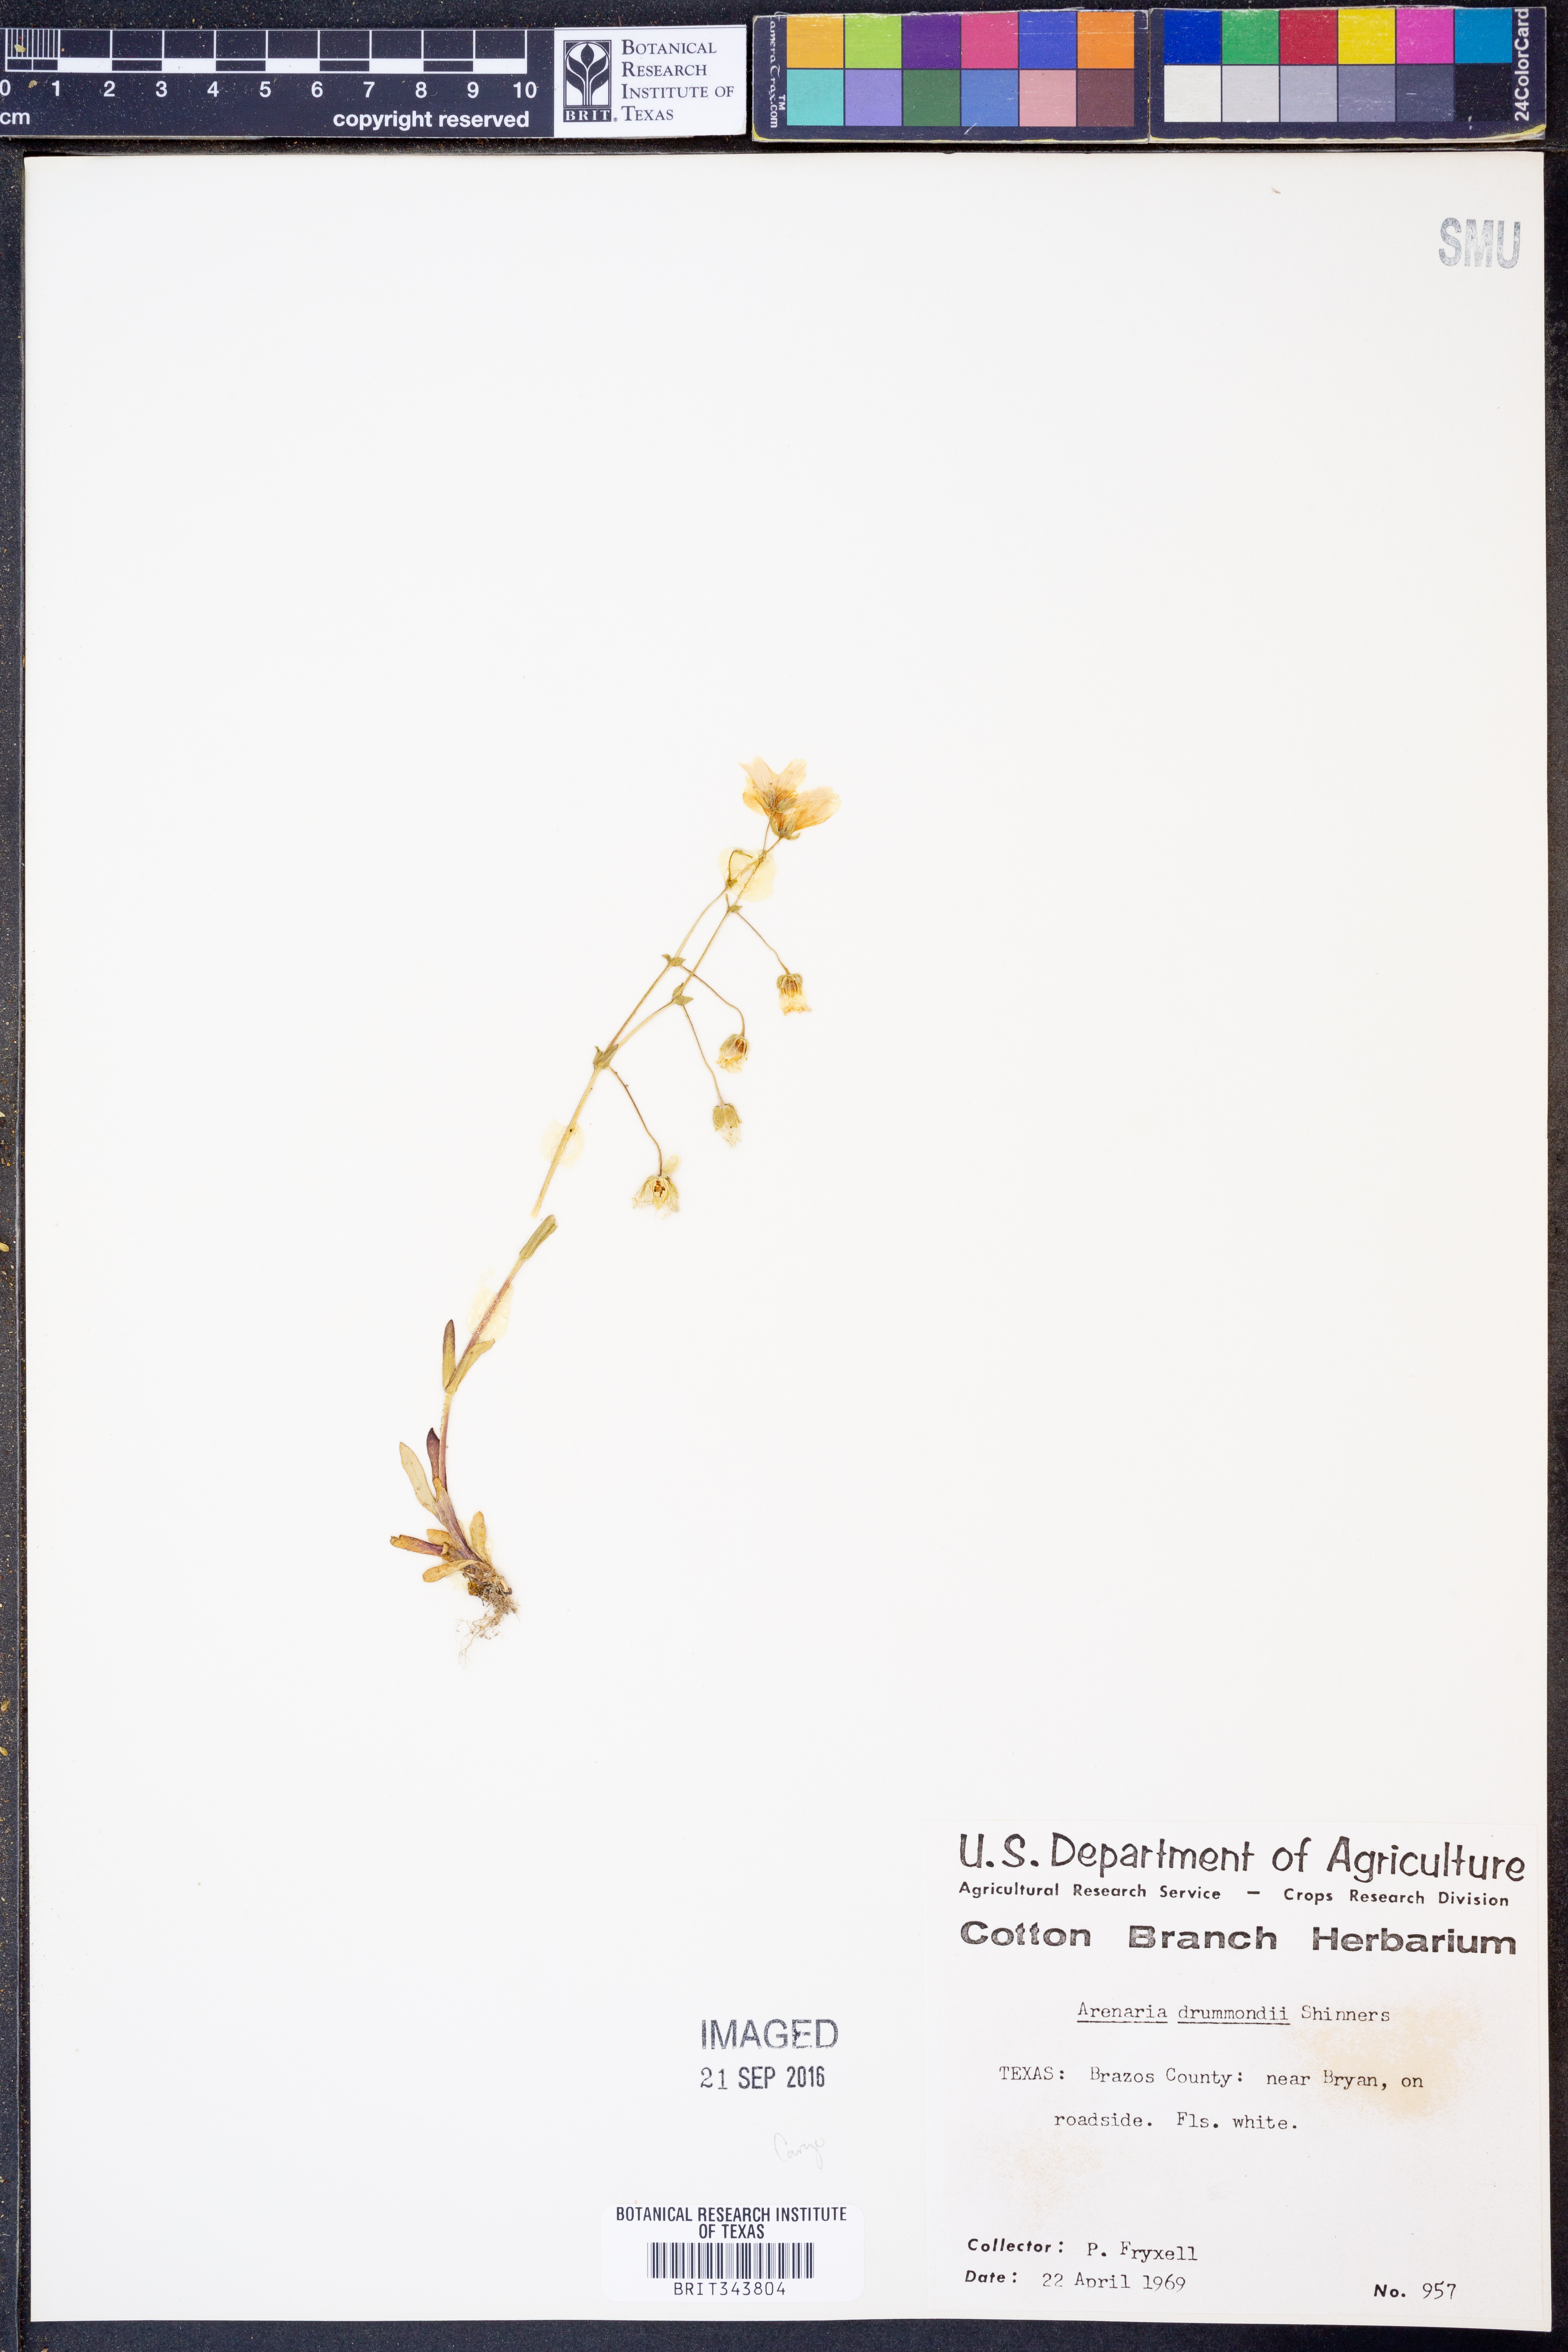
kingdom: Plantae
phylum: Tracheophyta
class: Magnoliopsida
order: Caryophyllales
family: Caryophyllaceae
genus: Geocarpon
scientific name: Geocarpon nuttallii
